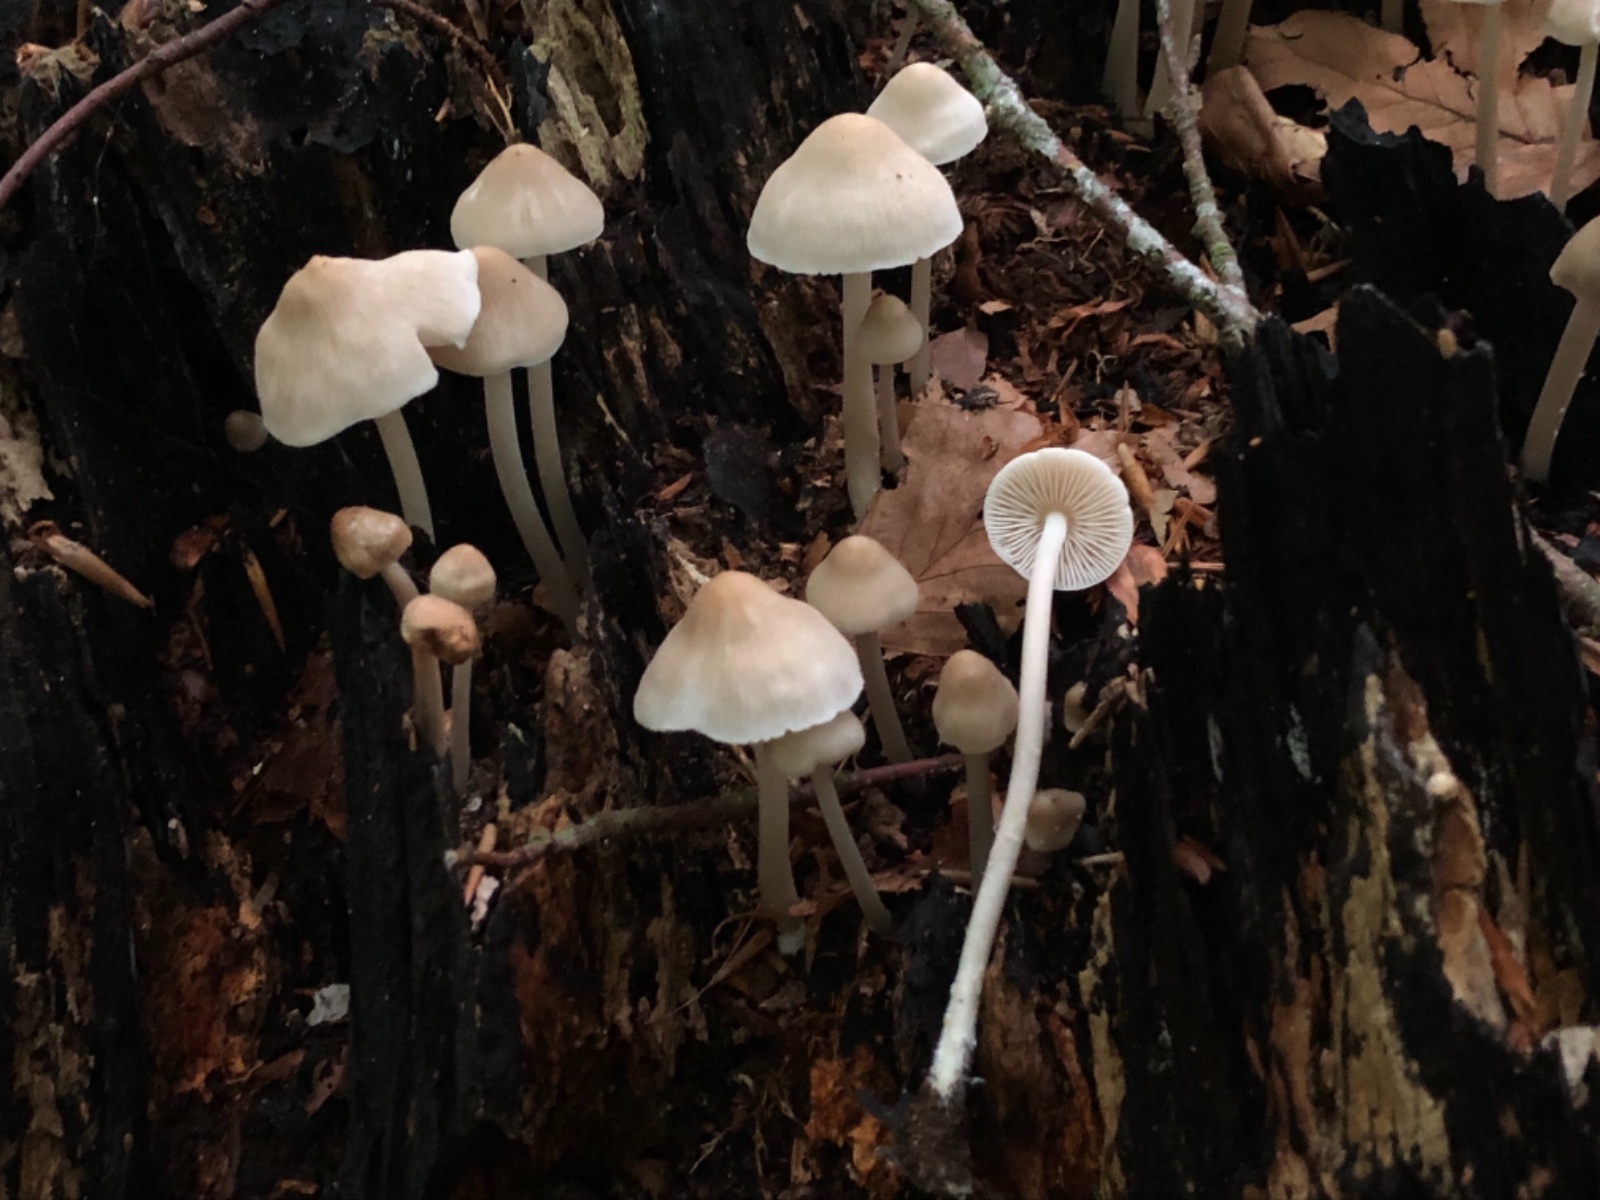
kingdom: Fungi
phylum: Basidiomycota
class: Agaricomycetes
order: Agaricales
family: Mycenaceae
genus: Mycena
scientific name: Mycena galericulata
